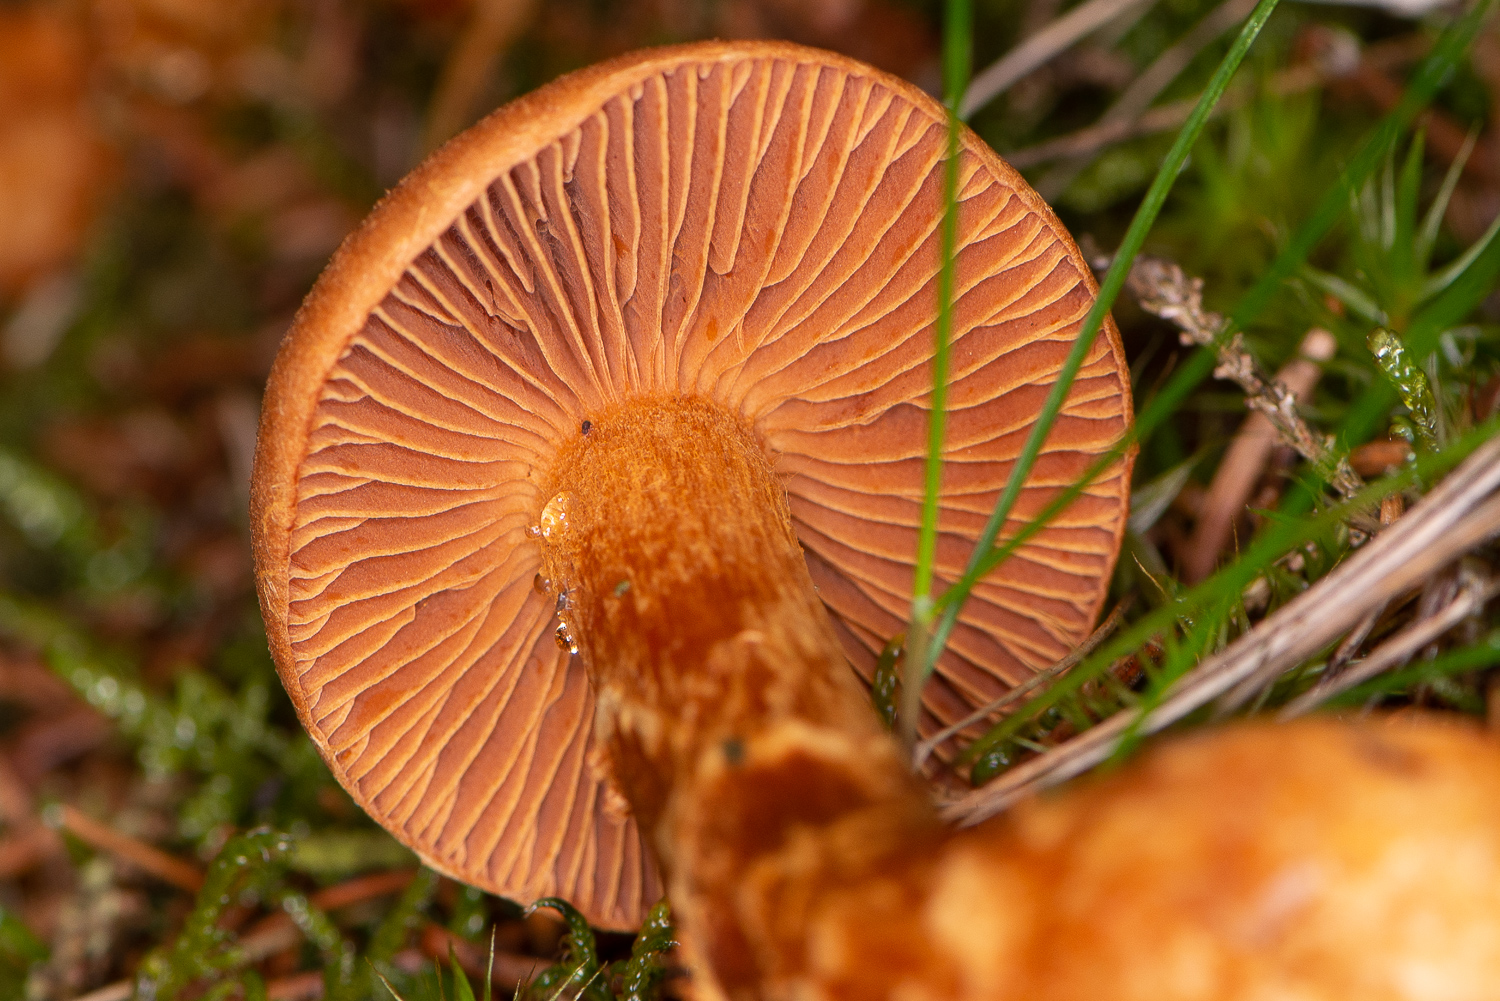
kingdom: Fungi
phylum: Basidiomycota
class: Agaricomycetes
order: Agaricales
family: Cortinariaceae
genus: Cortinarius
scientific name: Cortinarius rubellus
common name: puklet gift-slørhat
